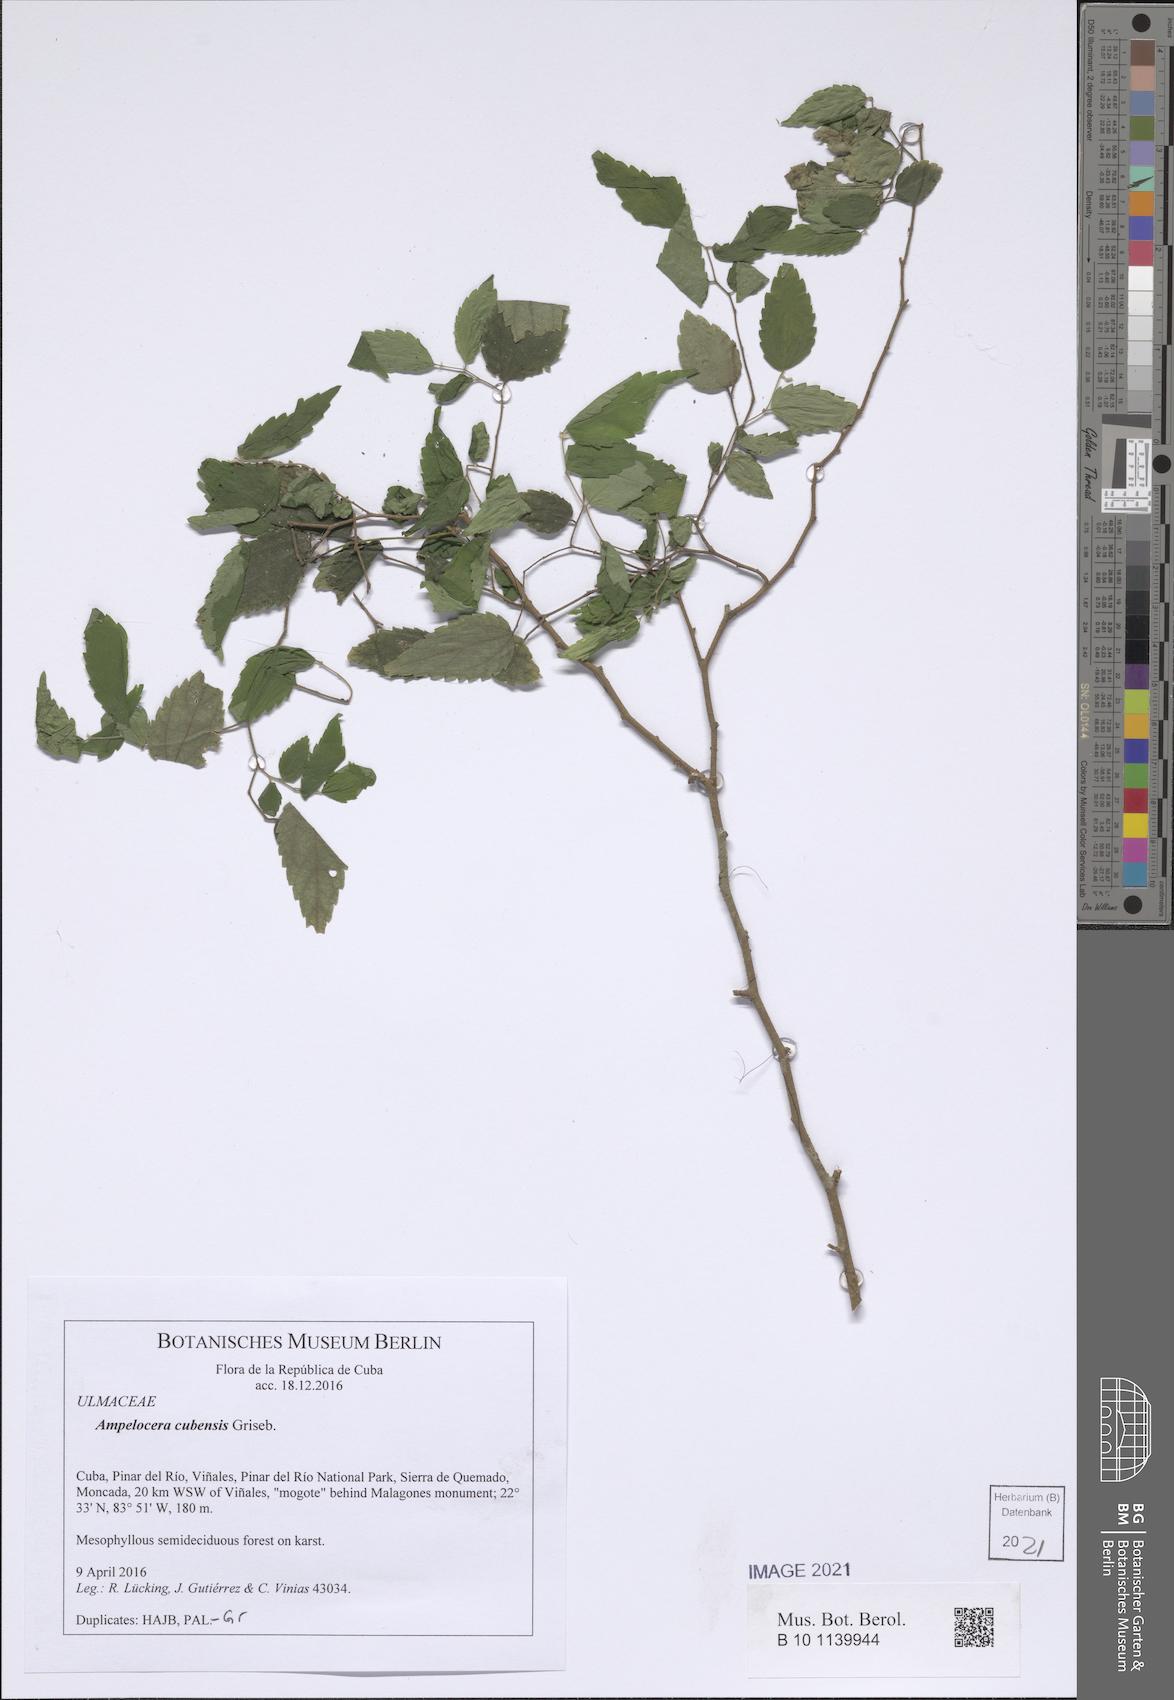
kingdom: Plantae
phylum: Tracheophyta
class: Magnoliopsida
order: Rosales
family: Cannabaceae
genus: Celtis
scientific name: Celtis trinervia
